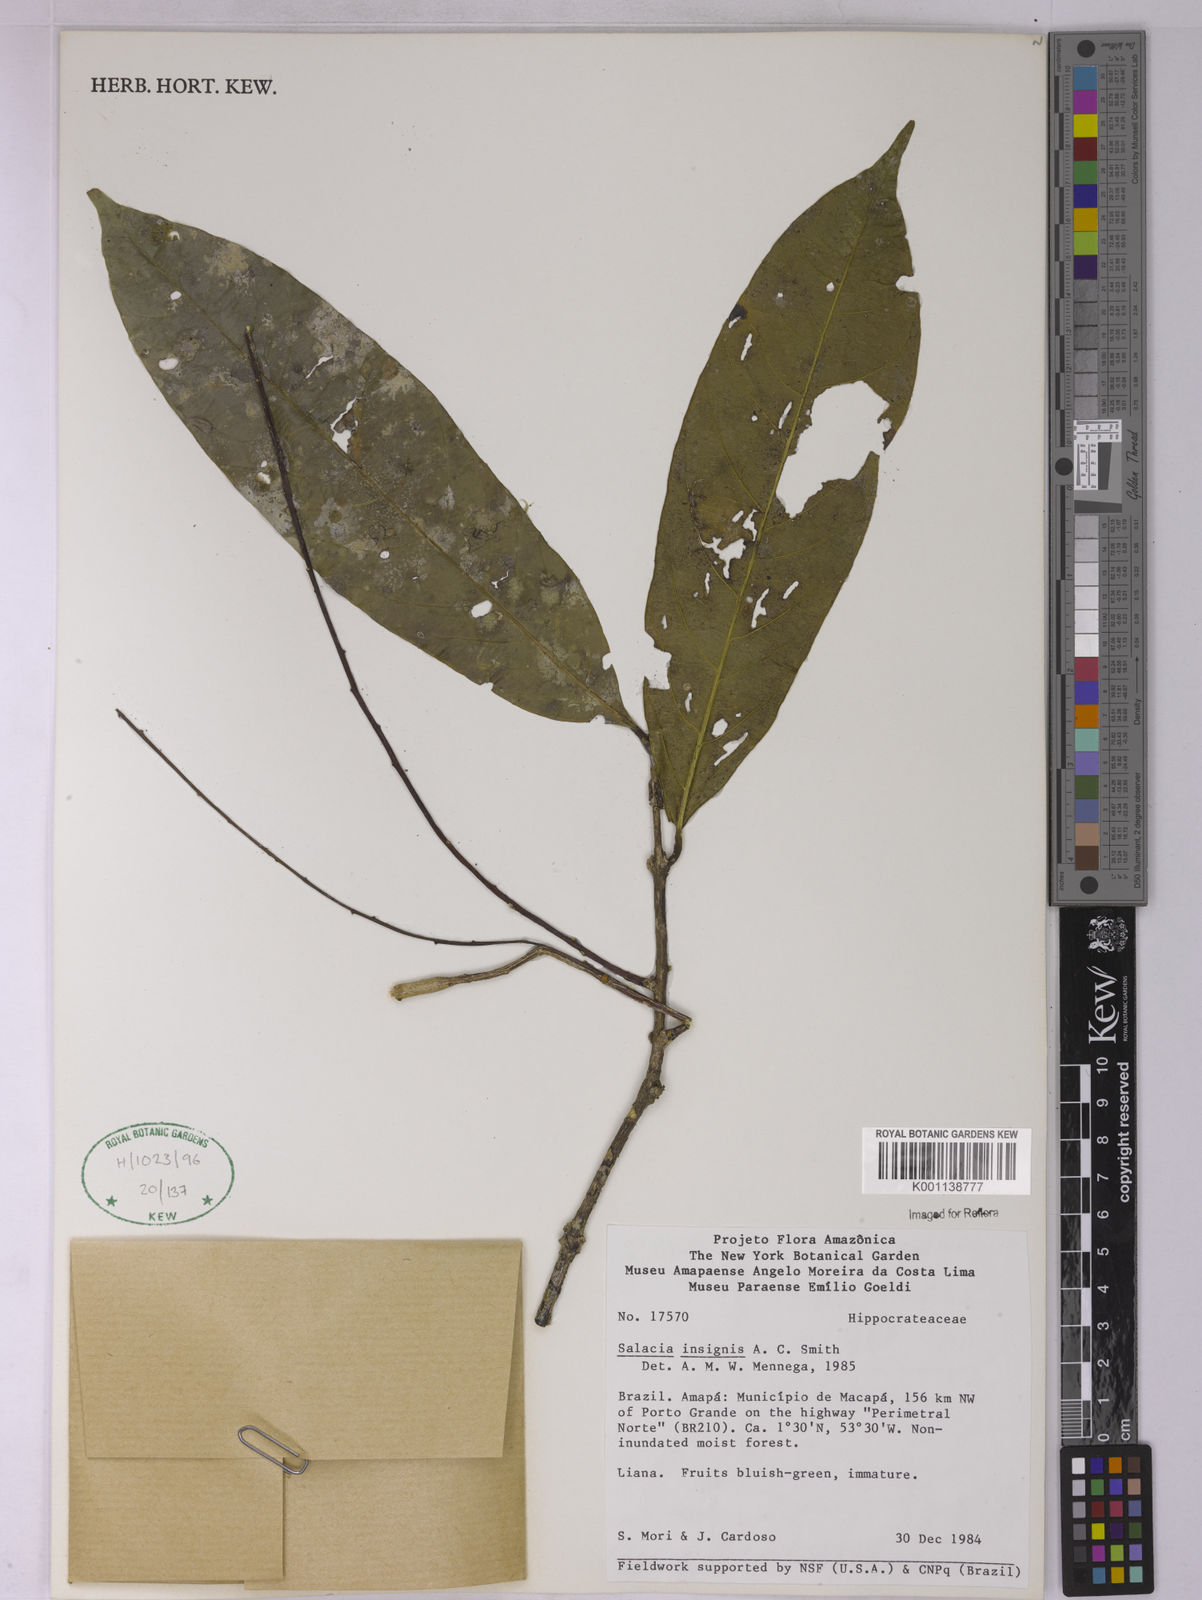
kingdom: Plantae
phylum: Tracheophyta
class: Magnoliopsida
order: Celastrales
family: Celastraceae
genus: Salacia
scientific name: Salacia insignis
